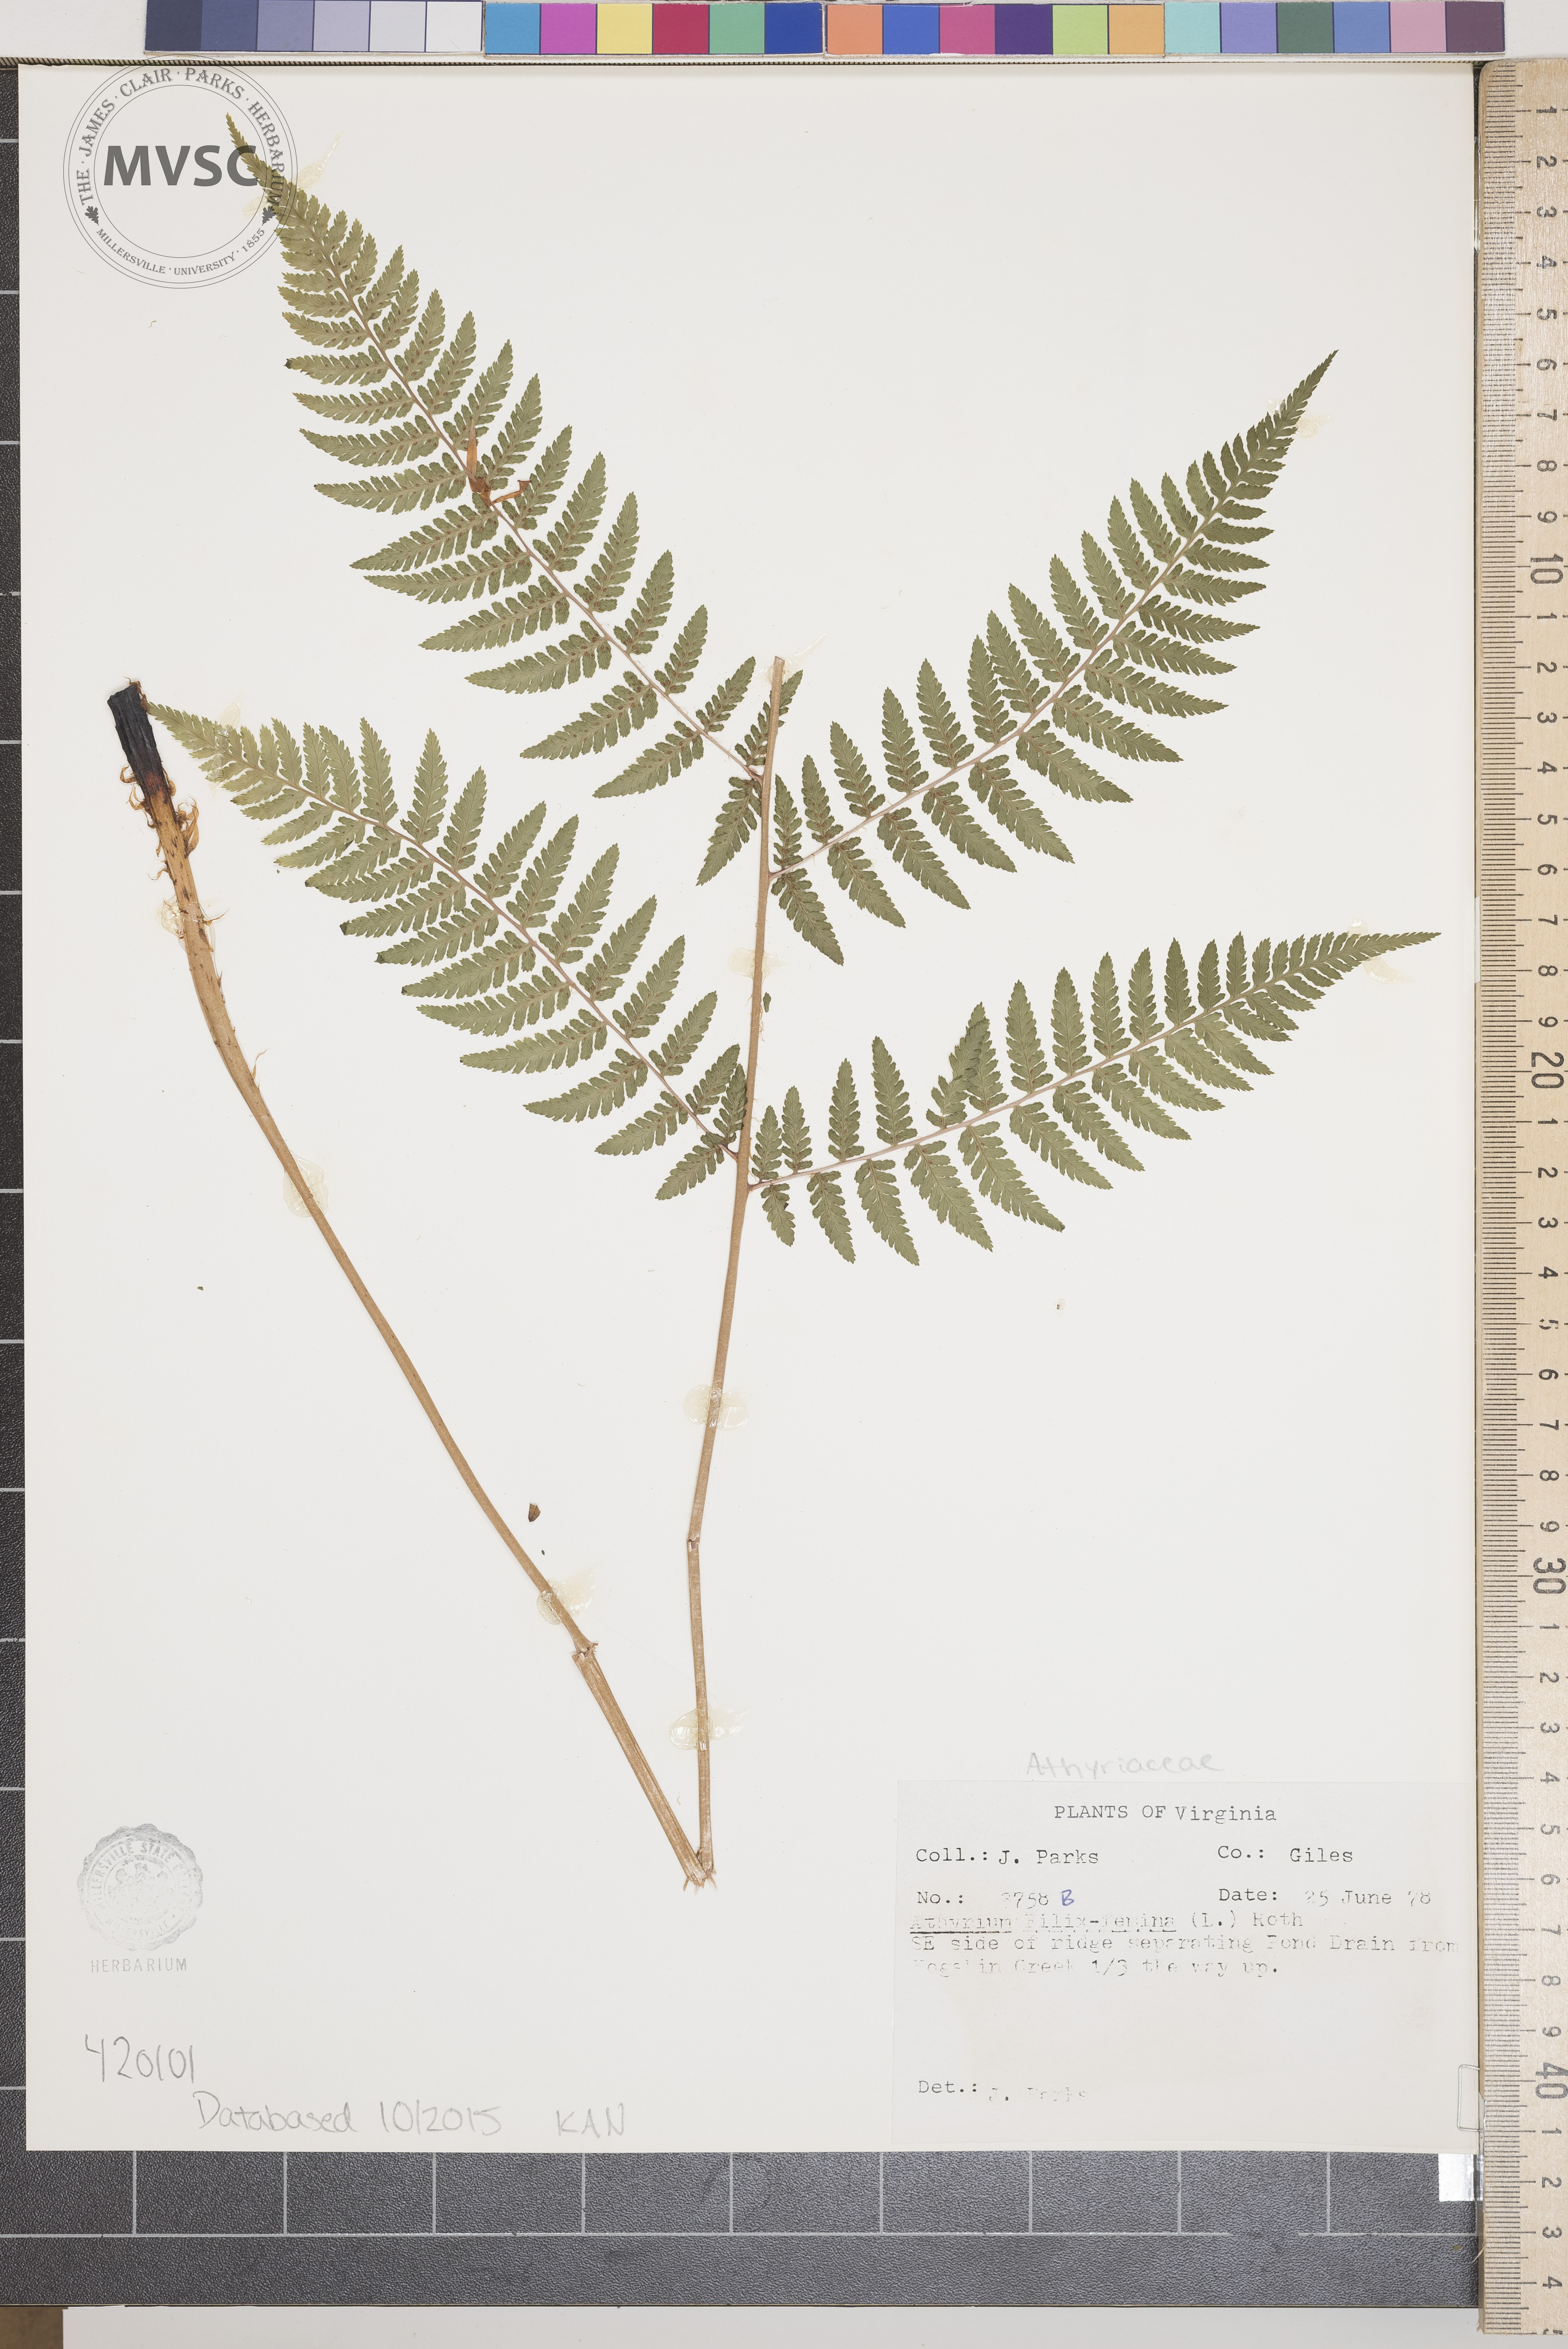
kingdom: Plantae
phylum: Tracheophyta
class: Polypodiopsida
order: Polypodiales
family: Athyriaceae
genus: Athyrium
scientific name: Athyrium filix-femina
